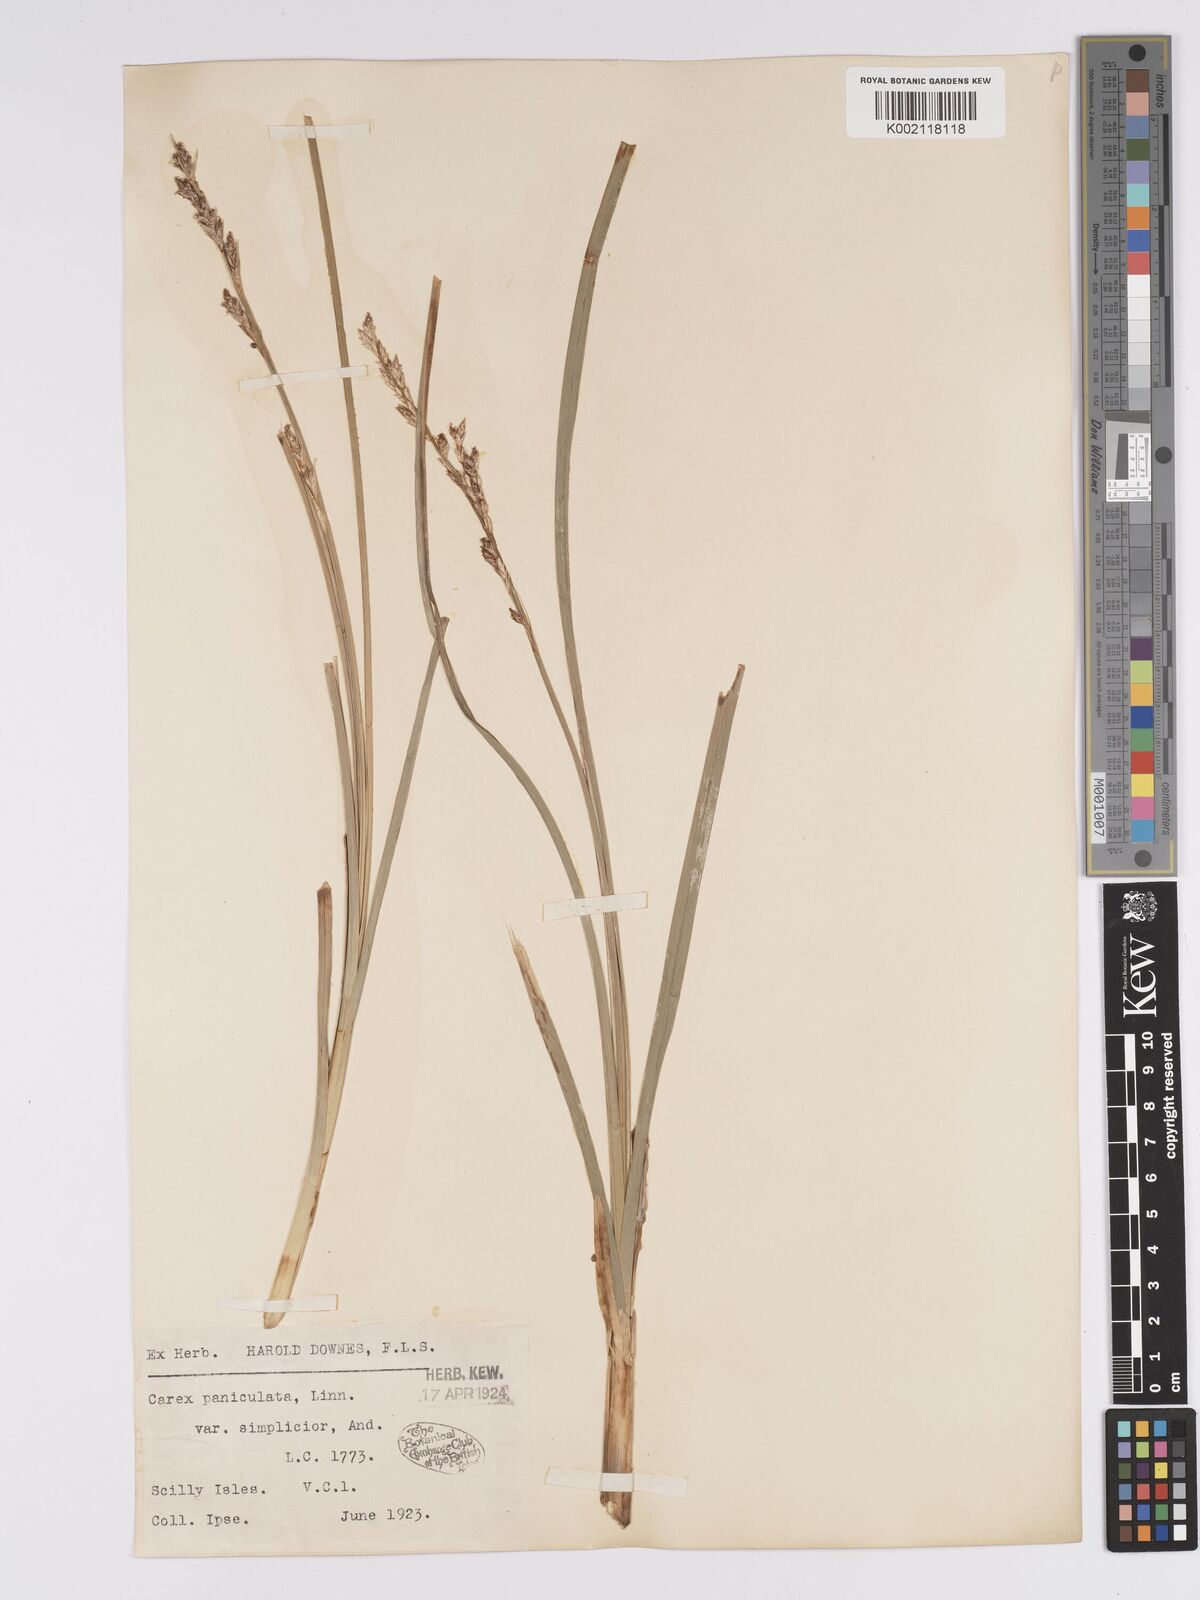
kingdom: Plantae
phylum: Tracheophyta
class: Liliopsida
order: Poales
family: Cyperaceae
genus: Carex
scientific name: Carex paniculata
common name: Greater tussock-sedge
